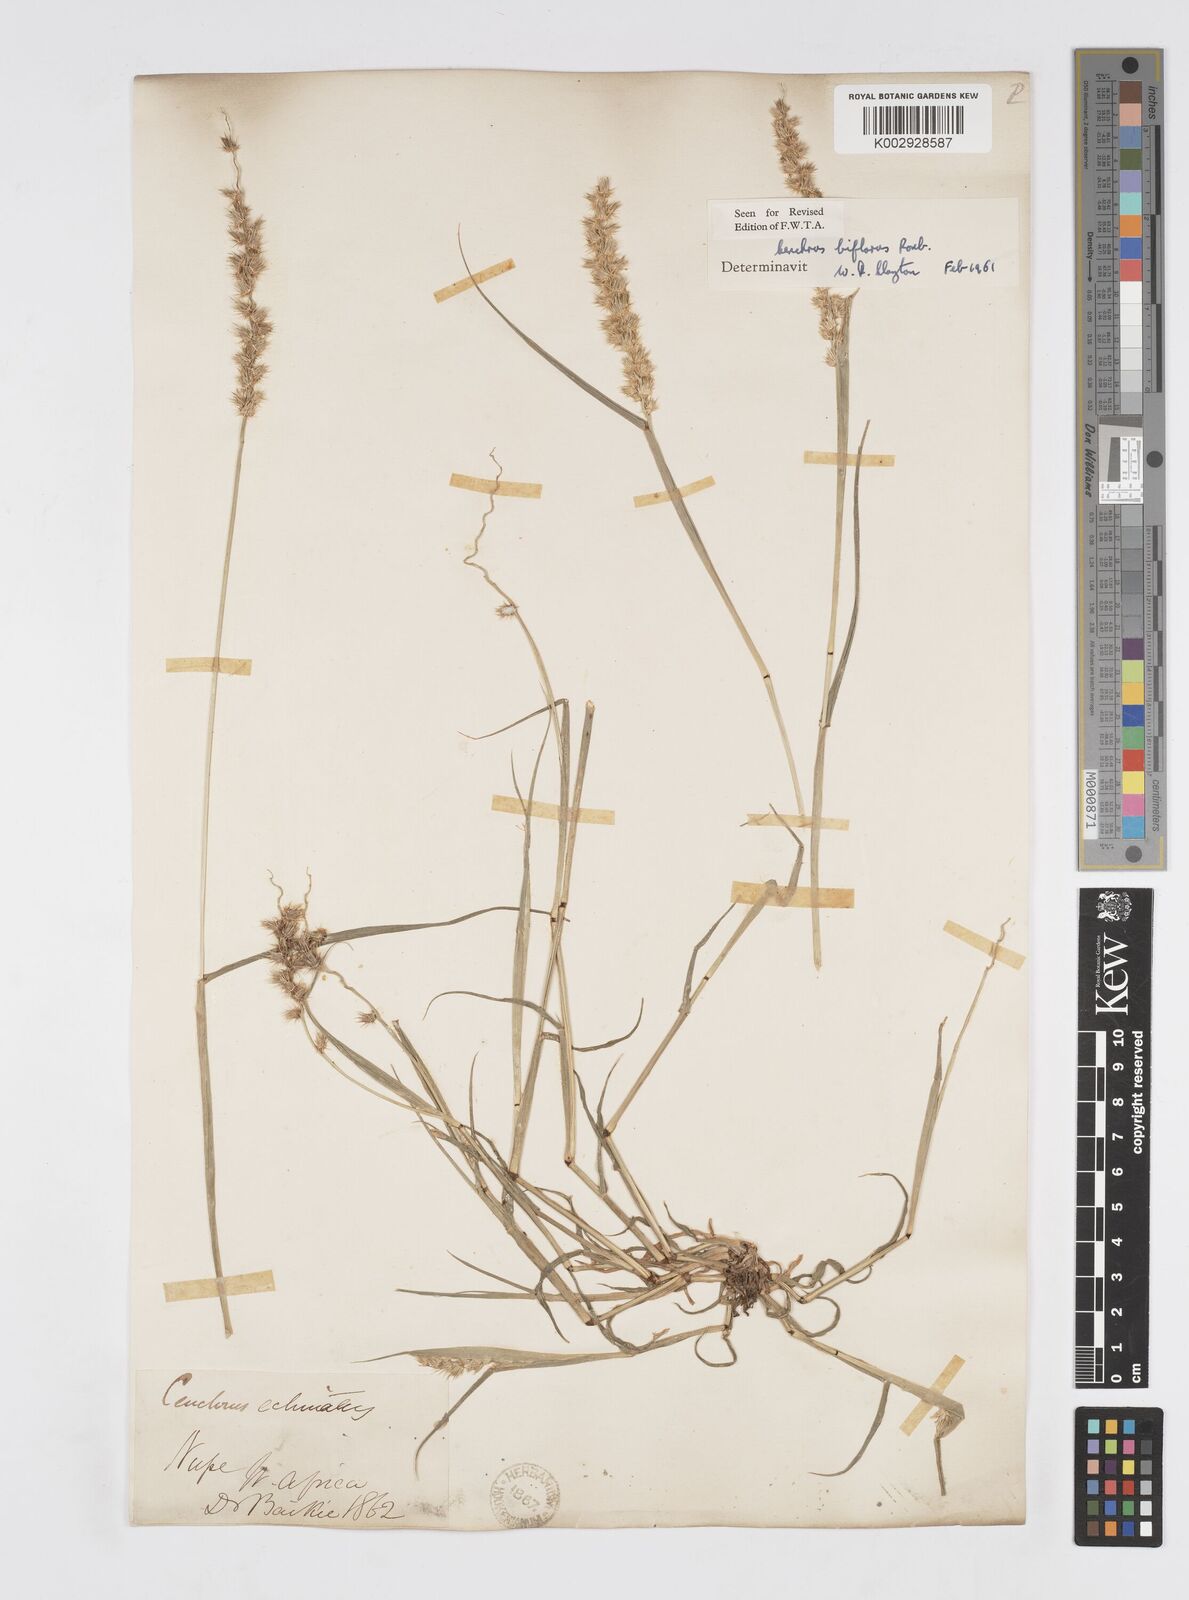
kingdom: Plantae
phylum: Tracheophyta
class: Liliopsida
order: Poales
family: Poaceae
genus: Cenchrus
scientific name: Cenchrus biflorus
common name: Indian sandbur
